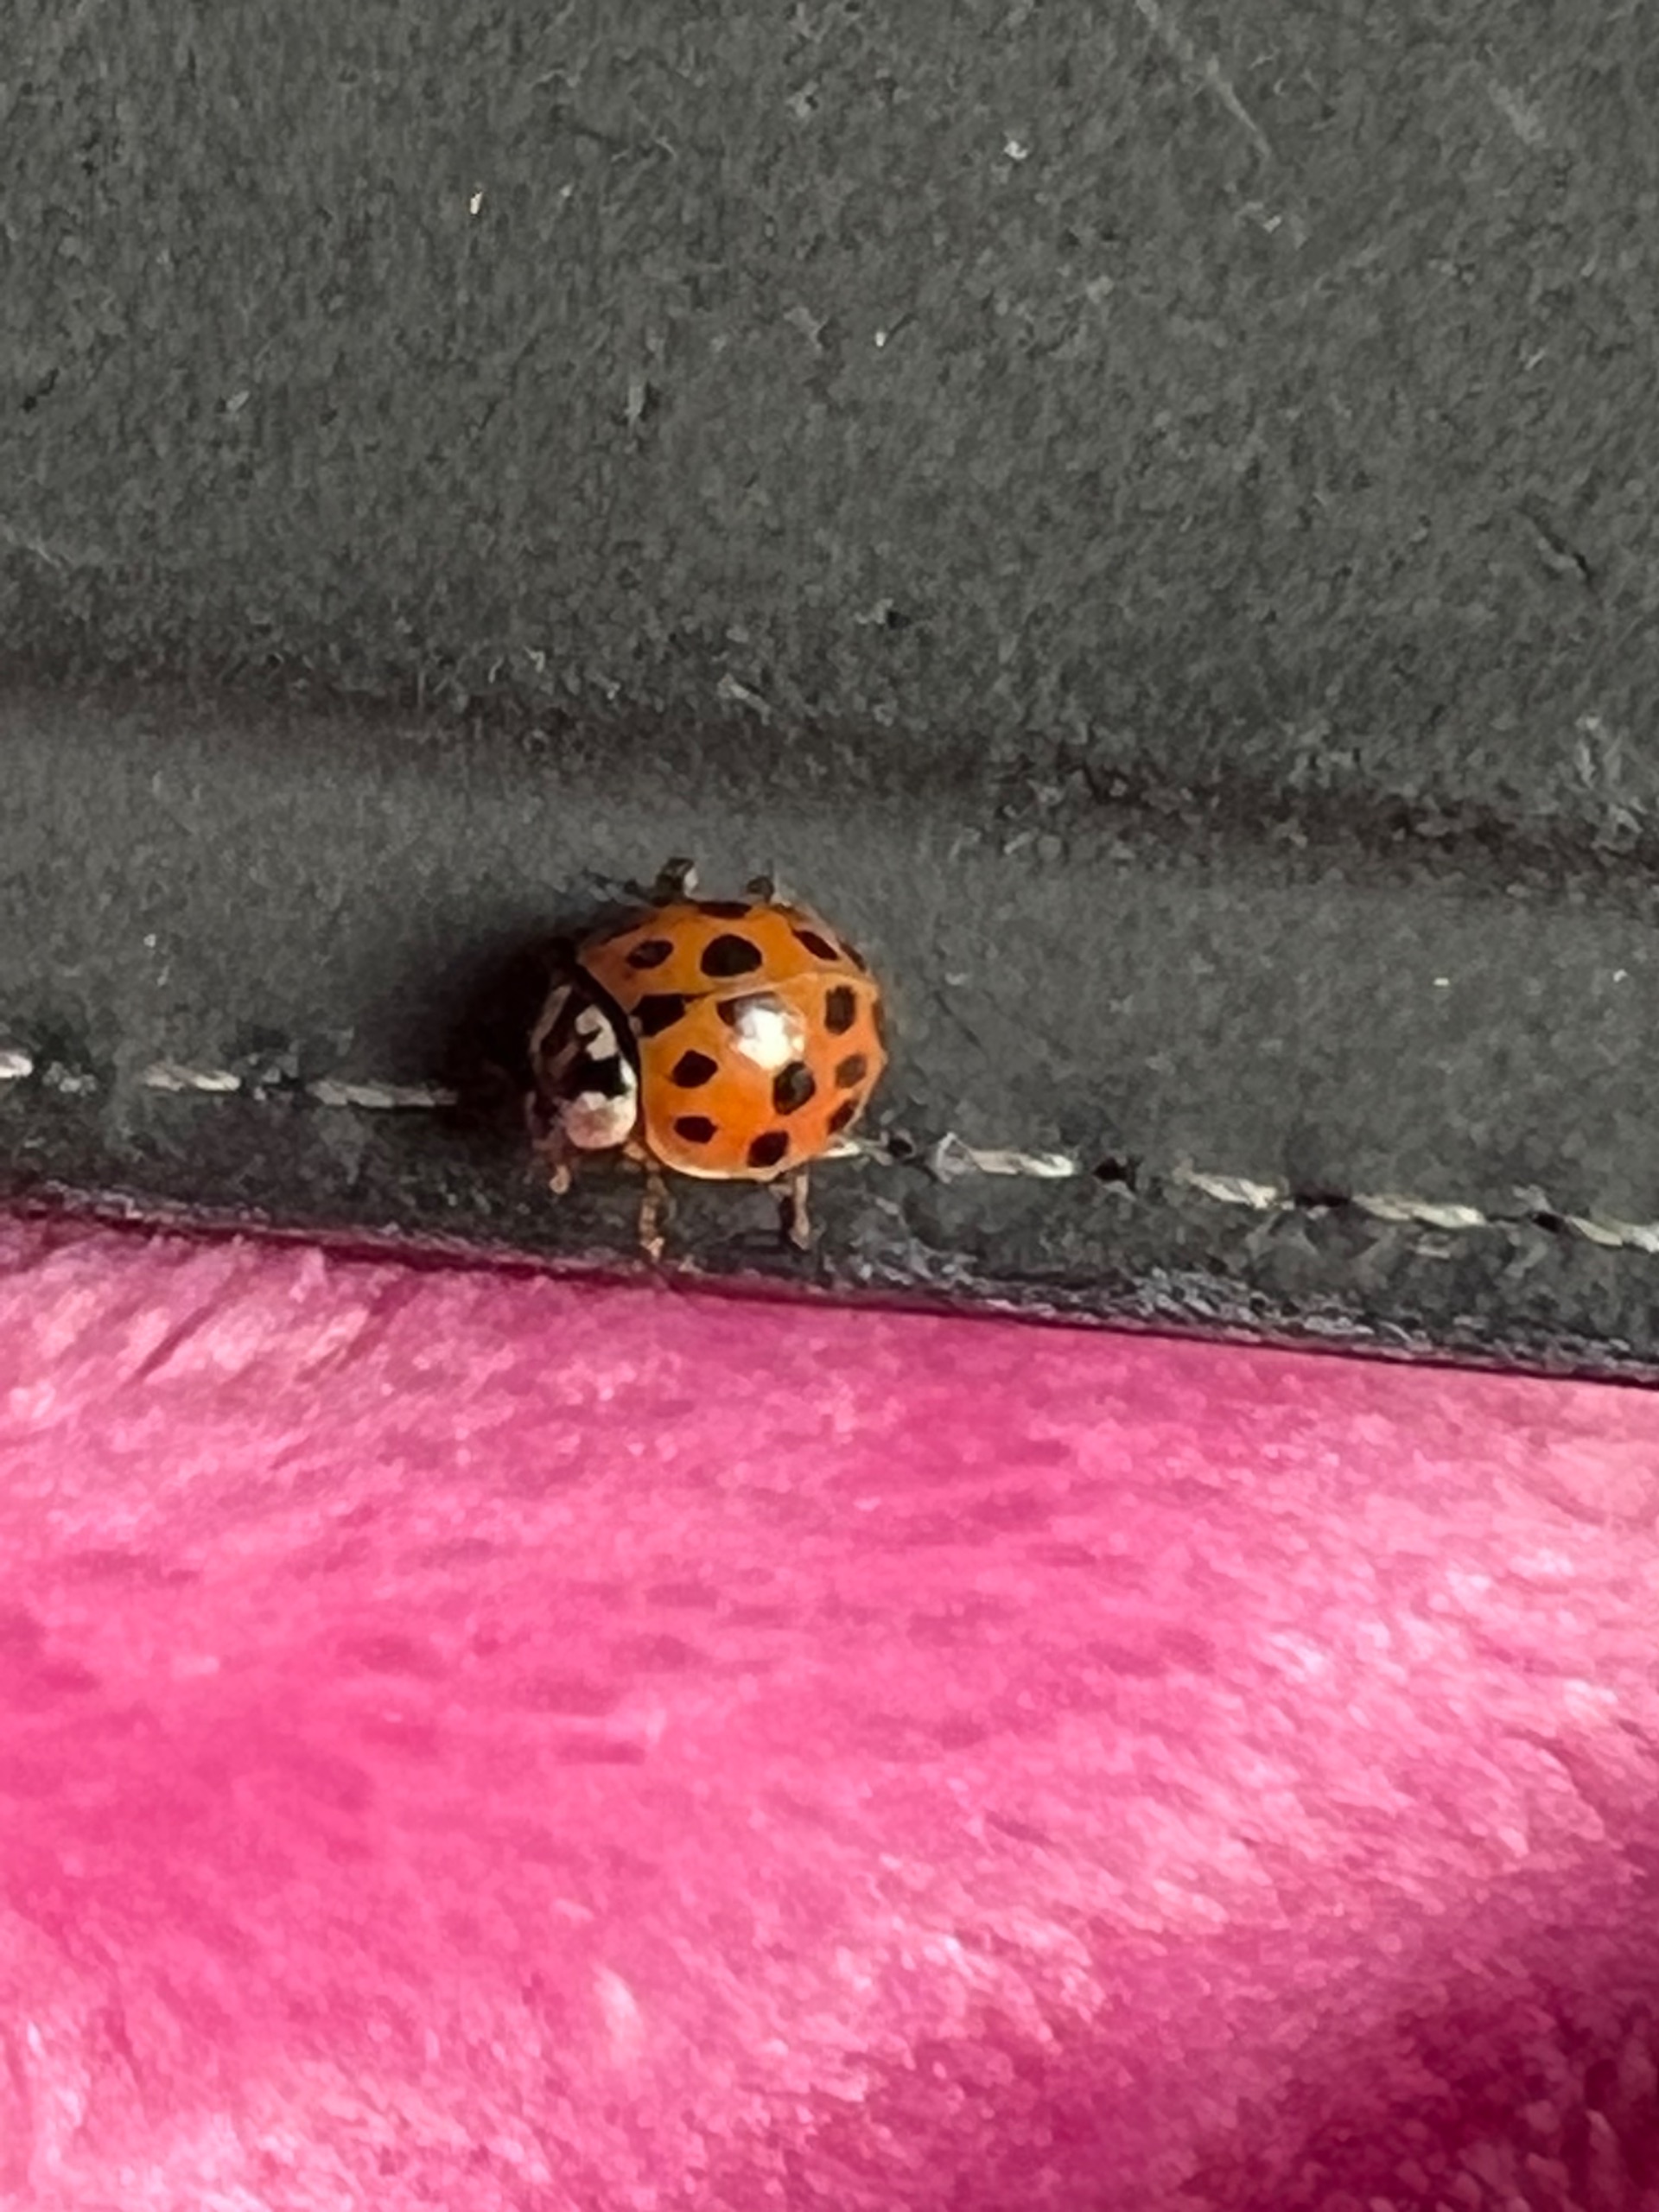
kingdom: Animalia
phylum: Arthropoda
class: Insecta
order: Coleoptera
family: Coccinellidae
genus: Harmonia
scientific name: Harmonia axyridis
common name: Harlekinmariehøne
